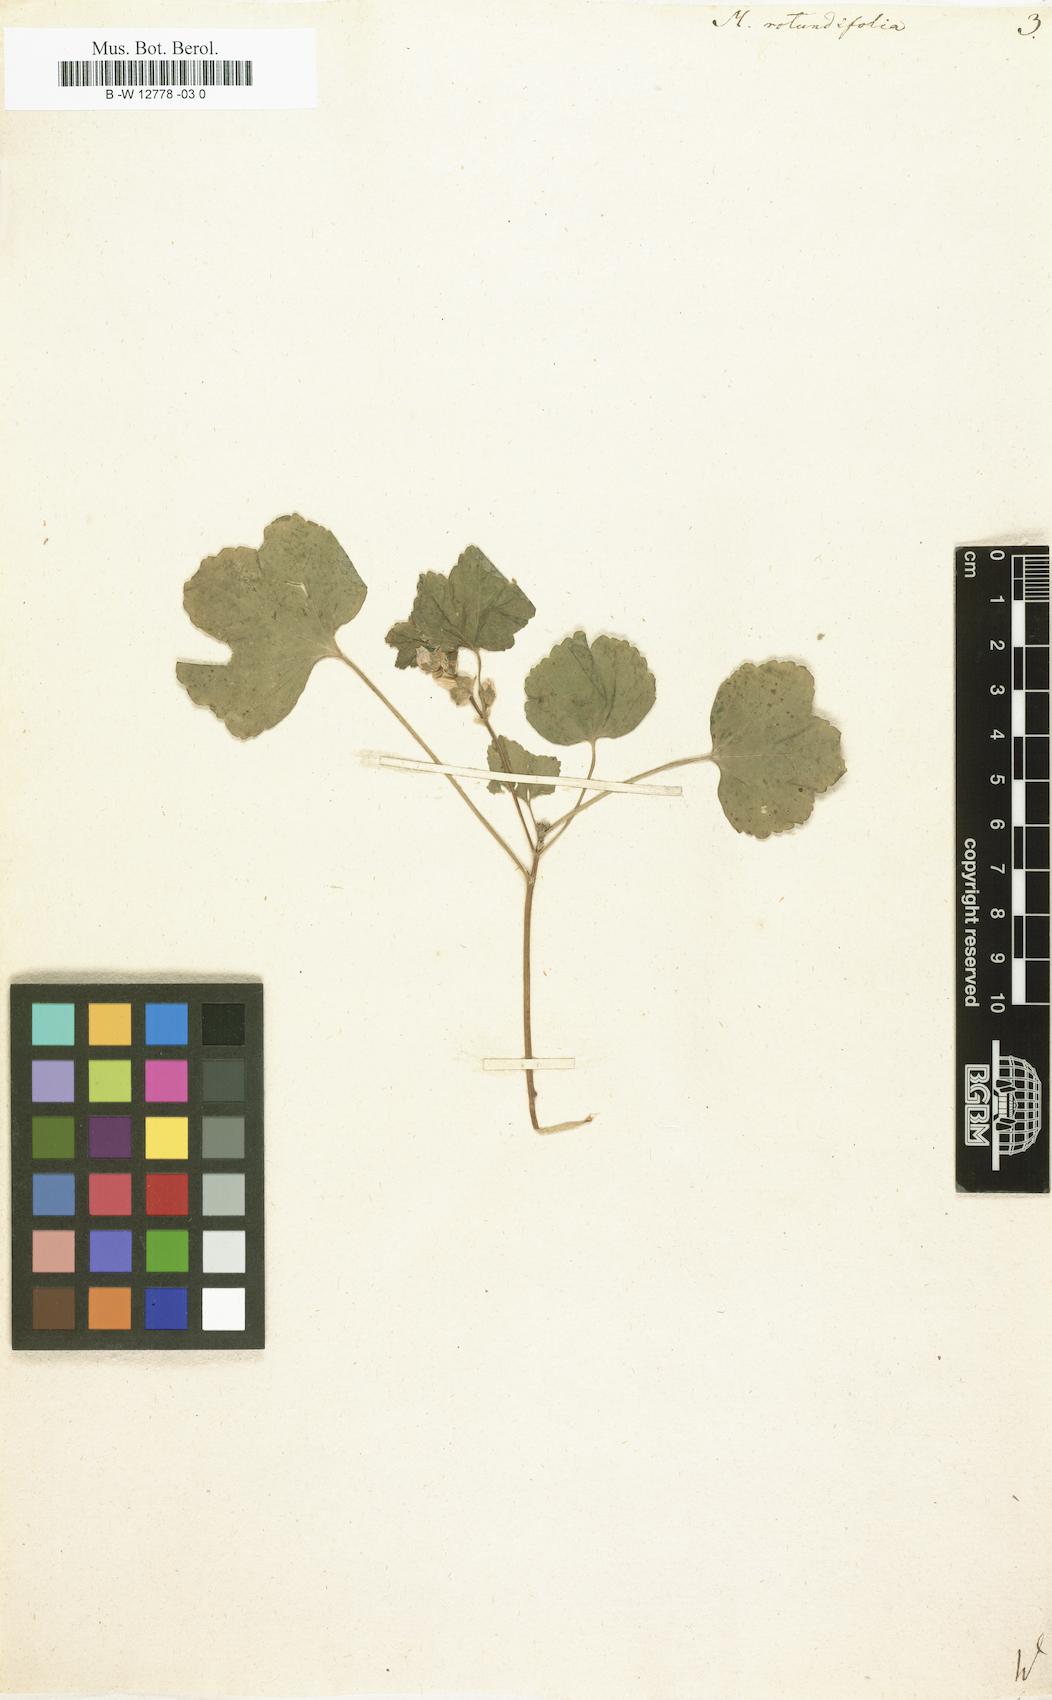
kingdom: Plantae
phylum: Tracheophyta
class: Magnoliopsida
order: Malvales
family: Malvaceae
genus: Malva
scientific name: Malva
